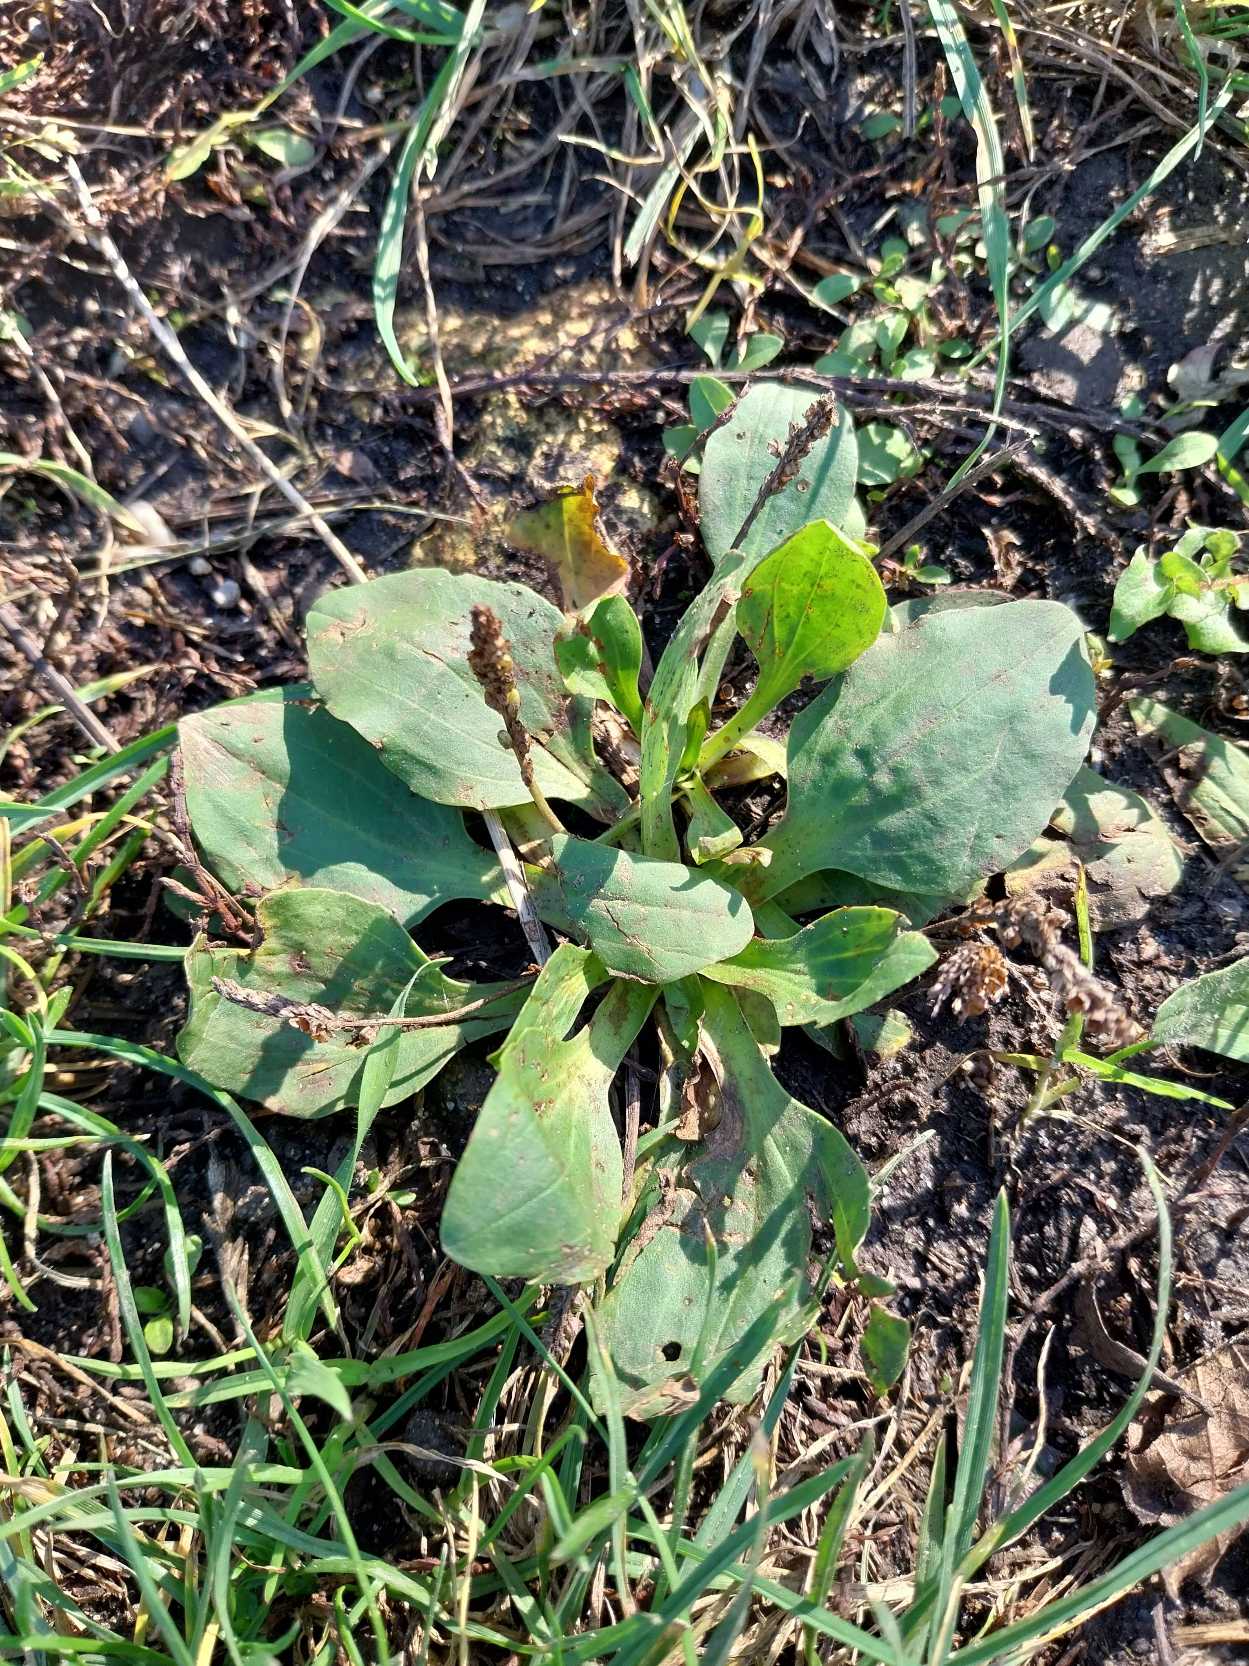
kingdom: Plantae
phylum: Tracheophyta
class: Magnoliopsida
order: Lamiales
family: Plantaginaceae
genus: Plantago
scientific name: Plantago major
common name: Glat vejbred
